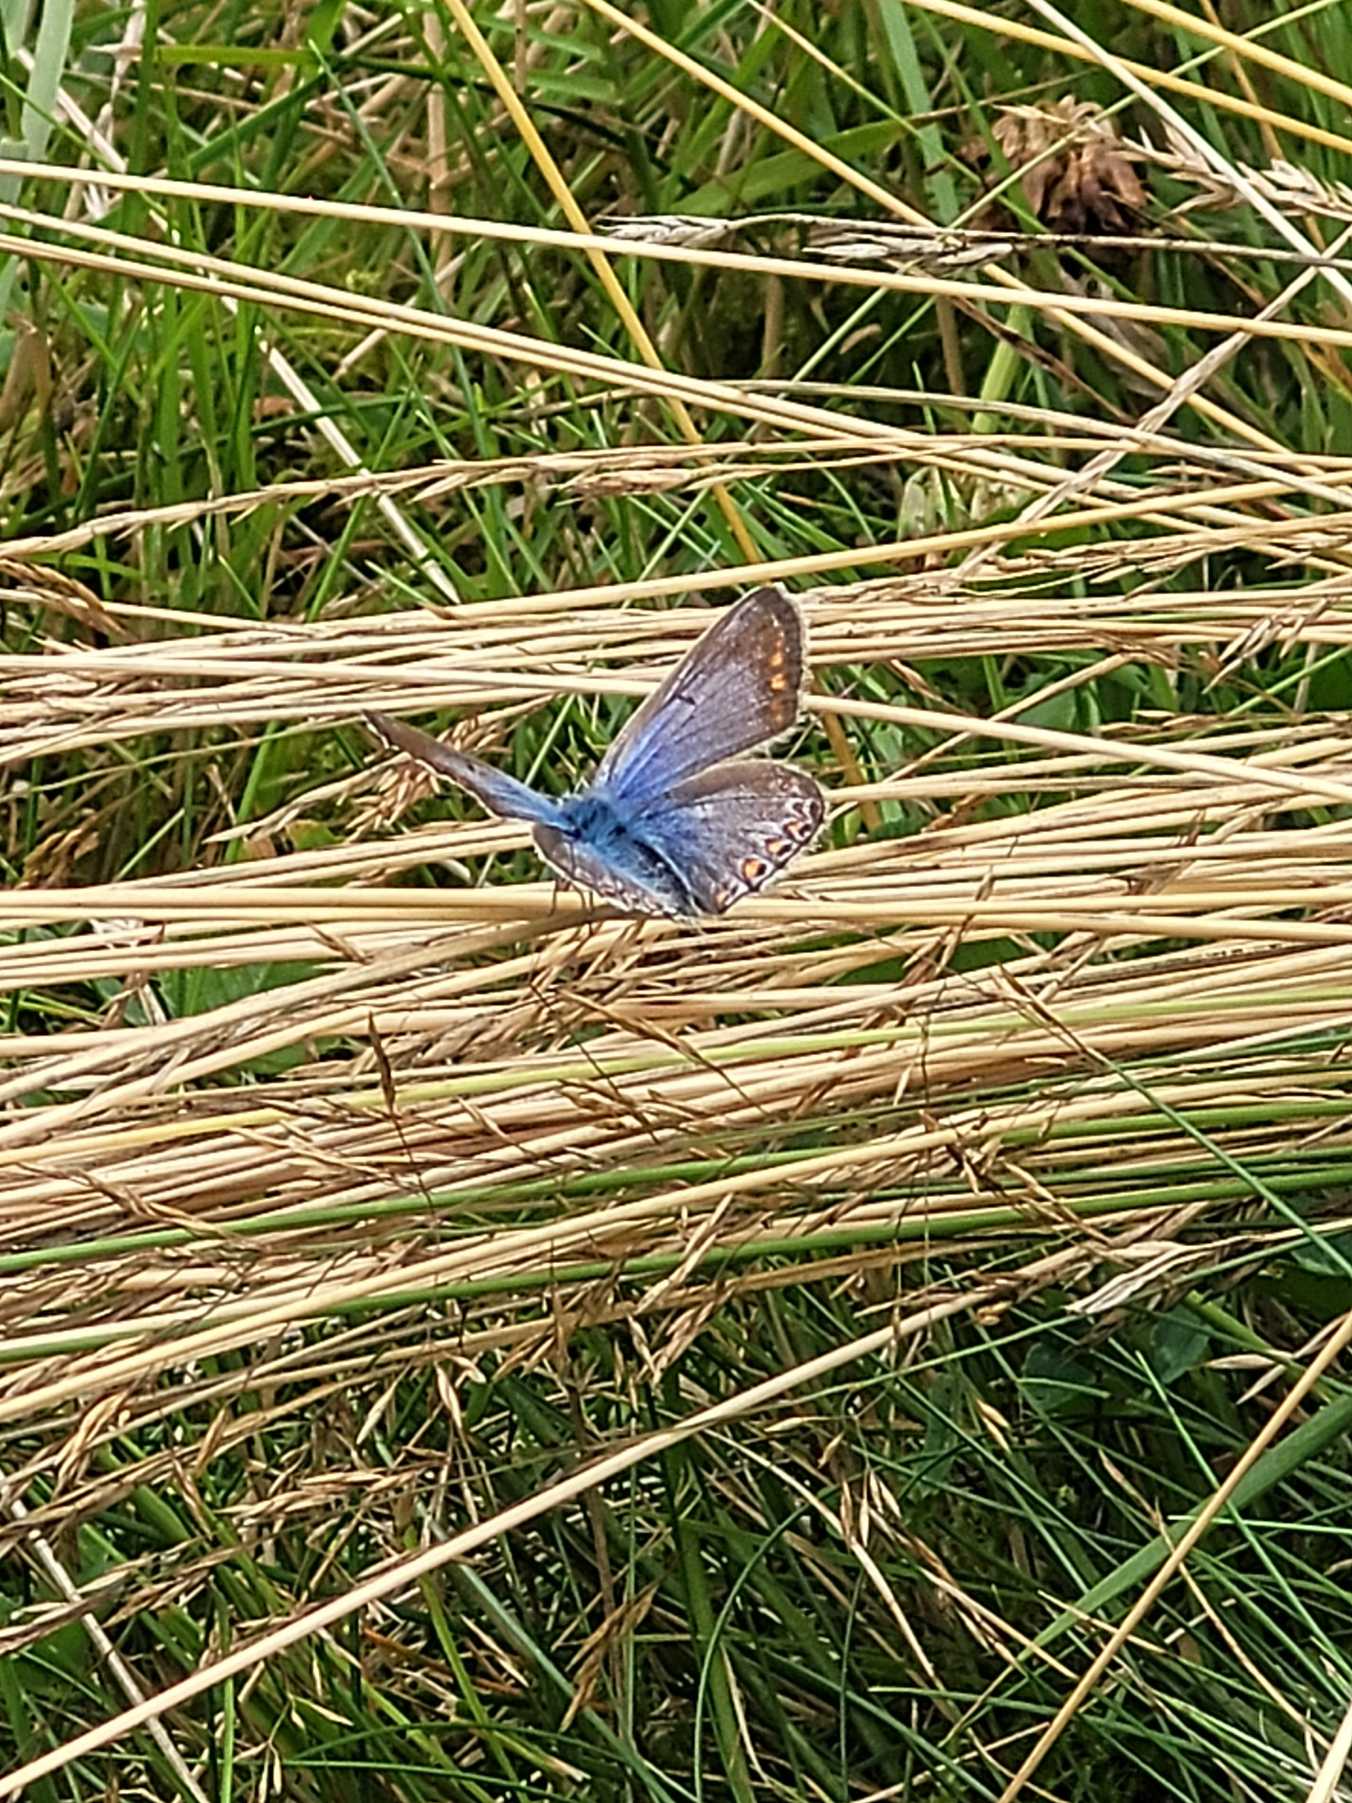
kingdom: Animalia
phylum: Arthropoda
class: Insecta
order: Lepidoptera
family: Lycaenidae
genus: Polyommatus
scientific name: Polyommatus icarus
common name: Almindelig blåfugl
